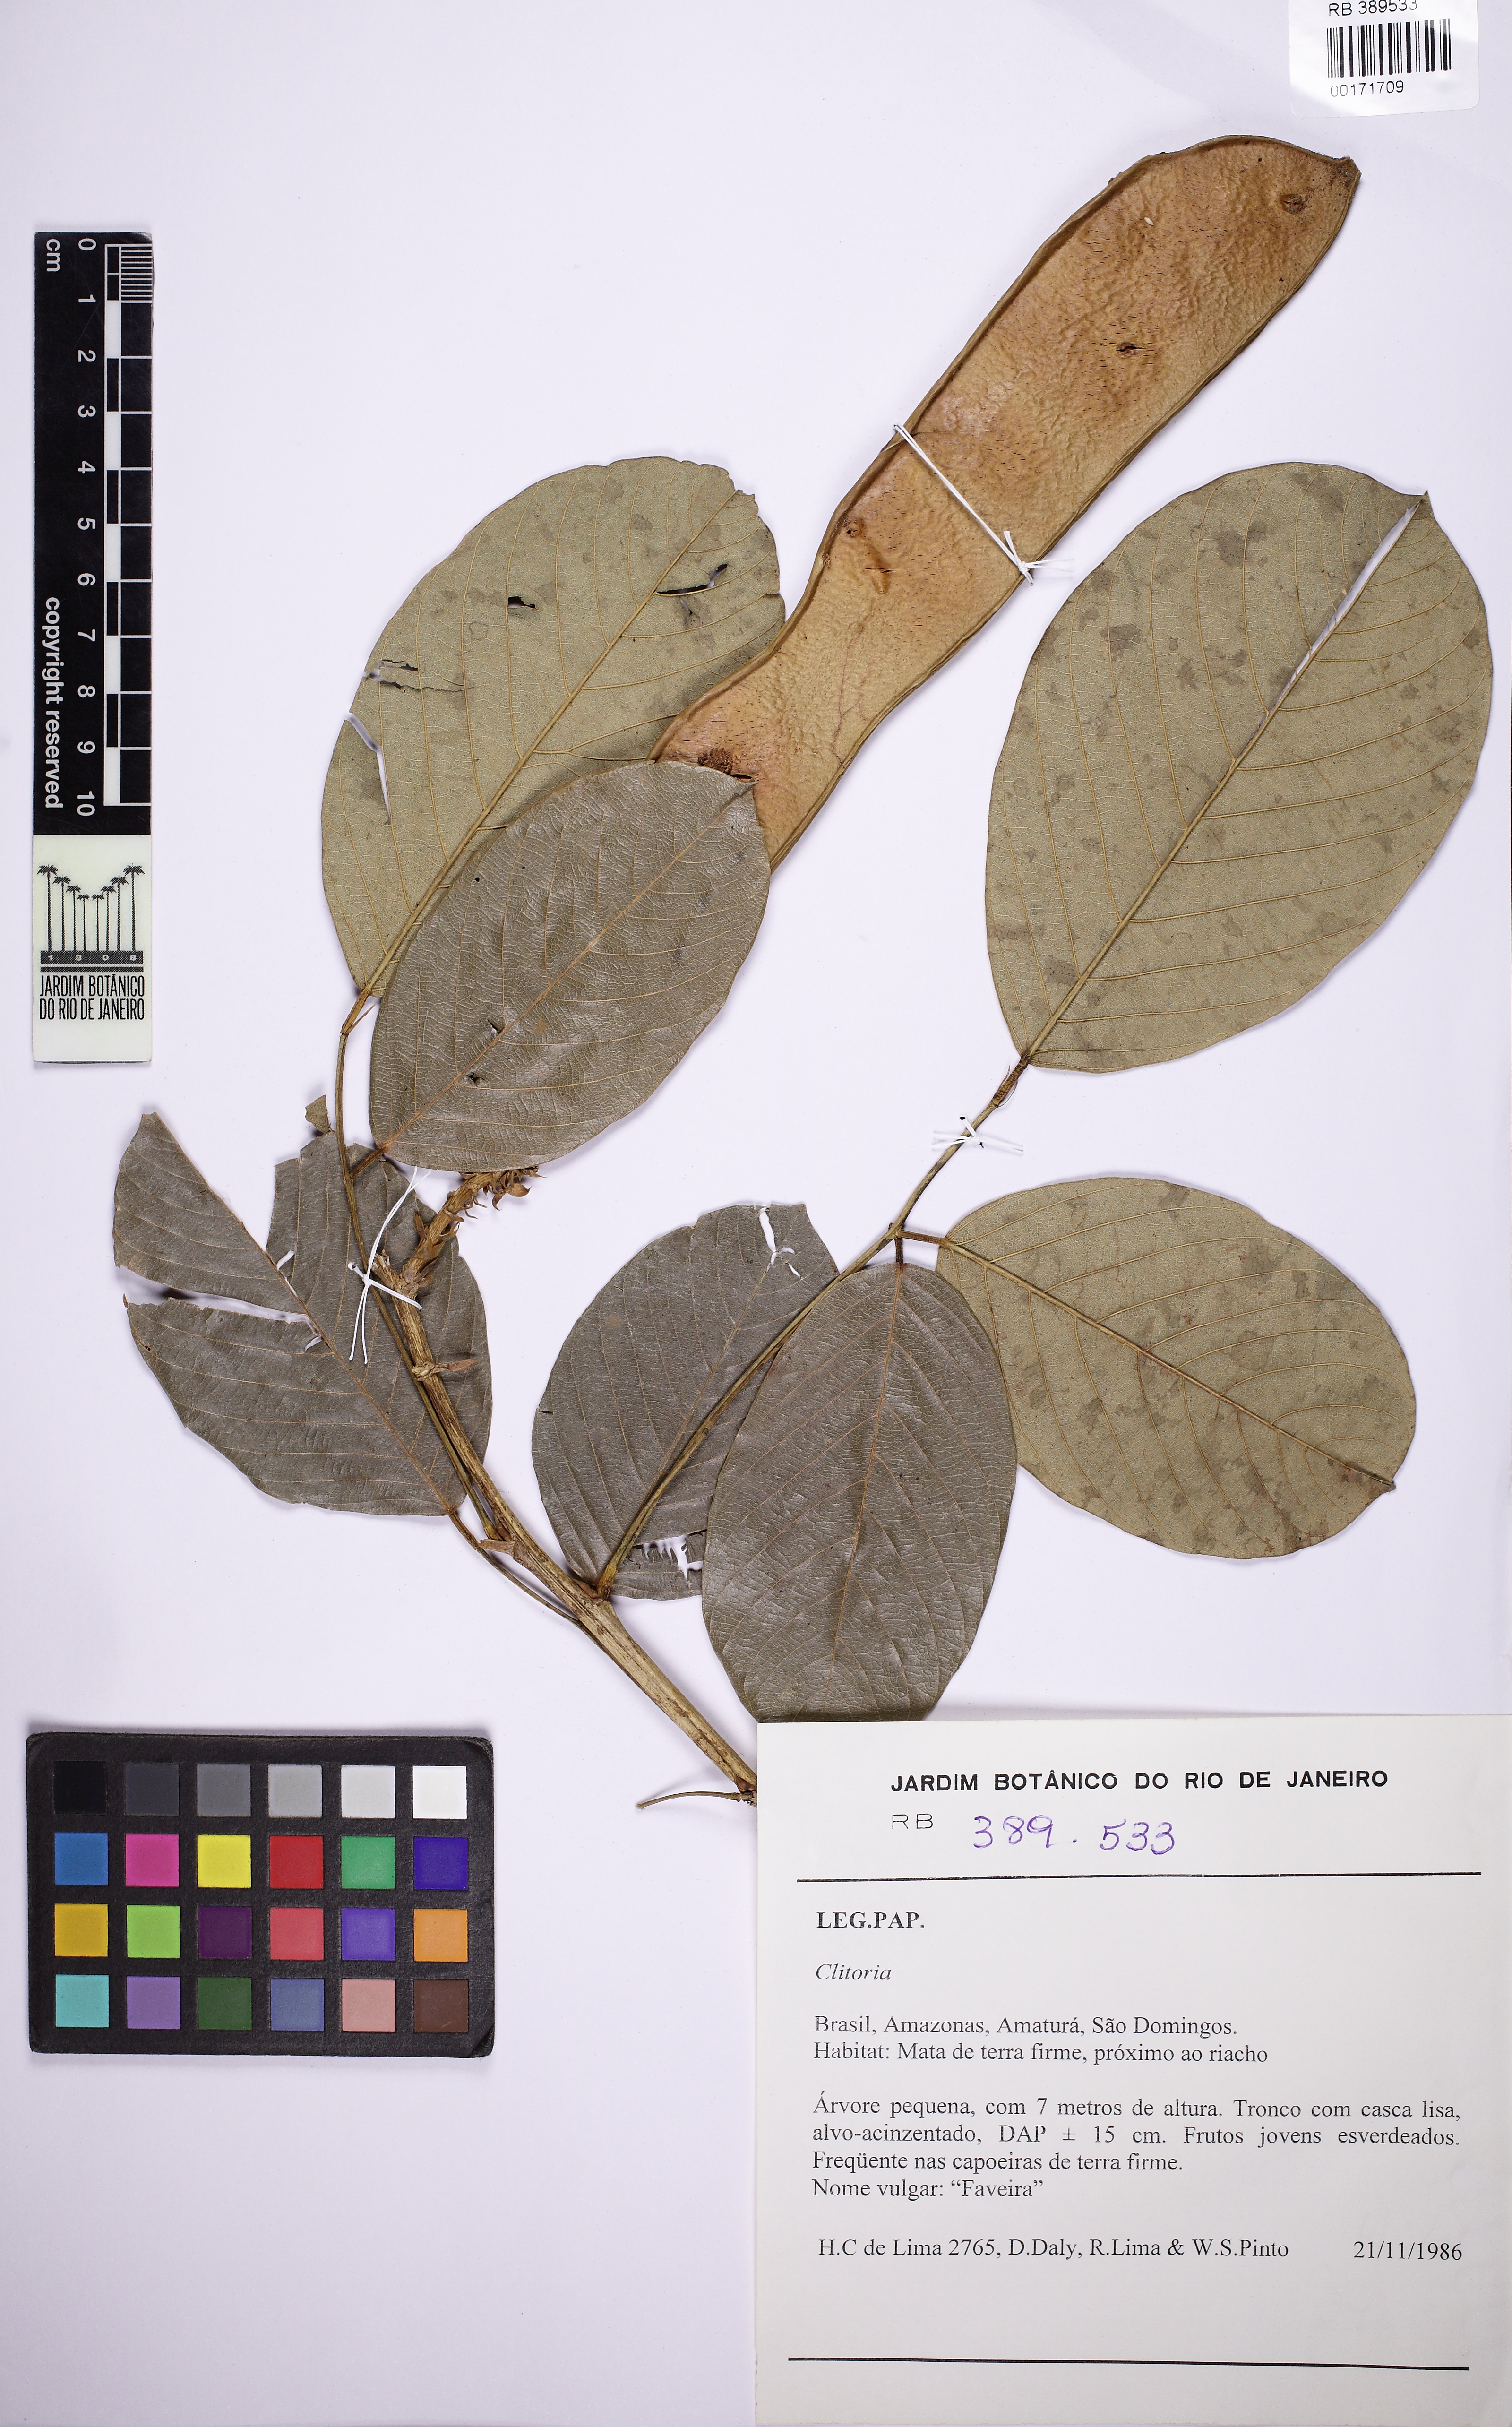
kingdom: Plantae
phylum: Tracheophyta
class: Magnoliopsida
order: Fabales
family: Fabaceae
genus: Clitoria
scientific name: Clitoria
